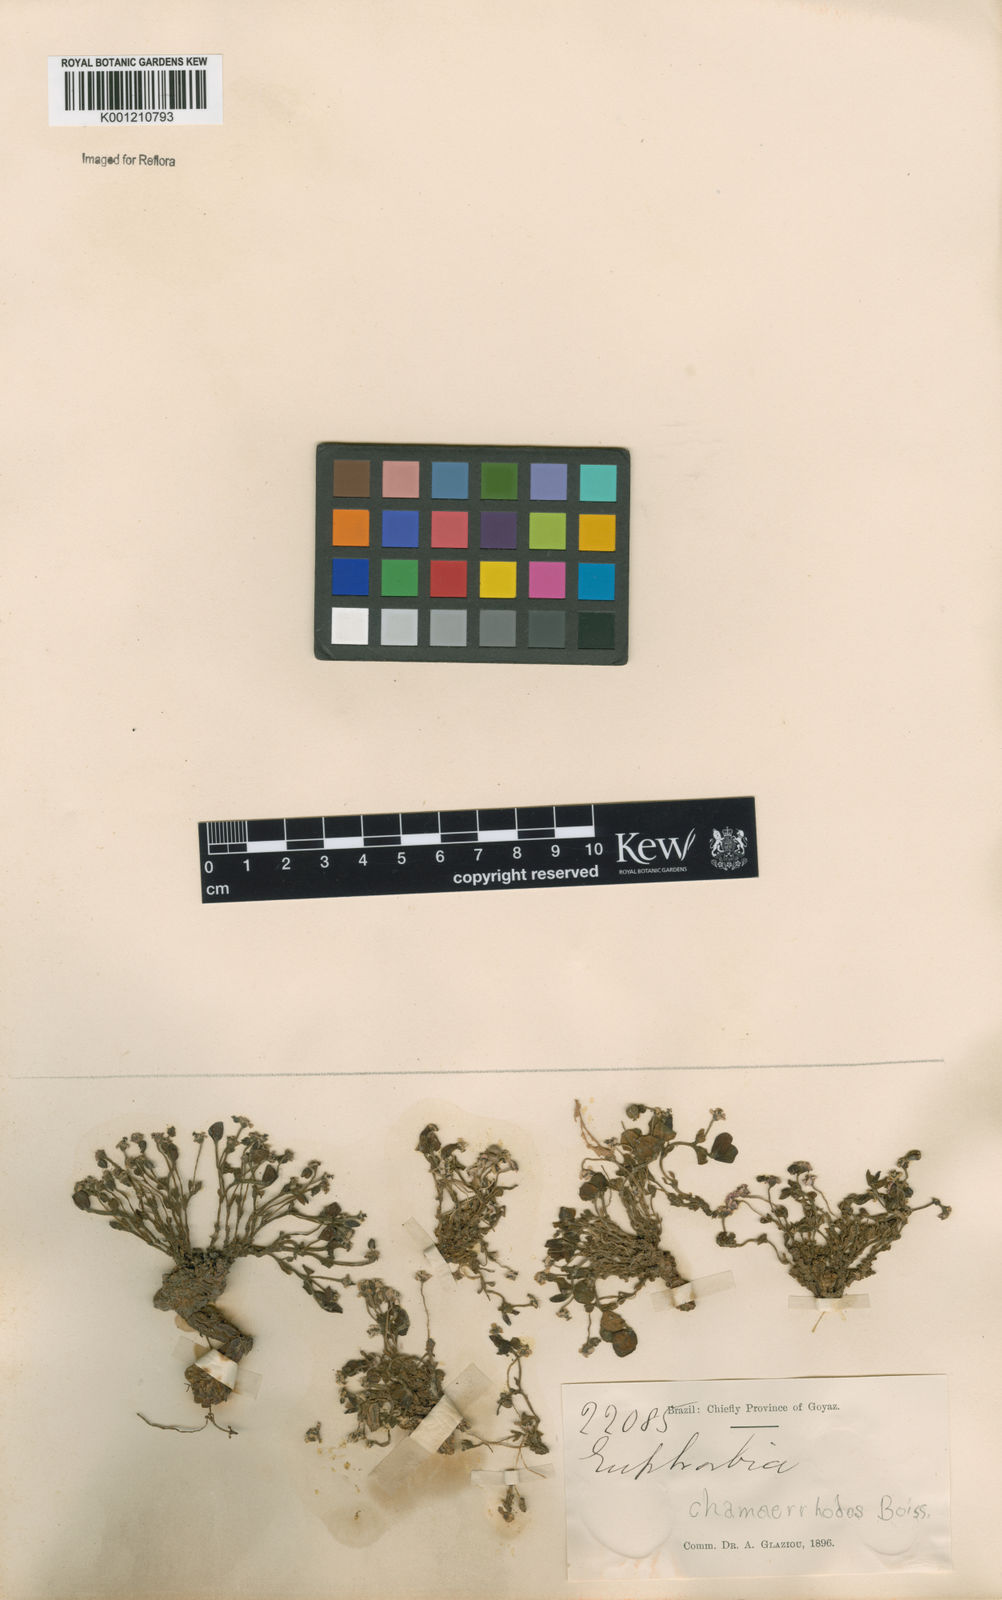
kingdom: Plantae
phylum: Tracheophyta
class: Magnoliopsida
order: Malpighiales
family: Euphorbiaceae
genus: Euphorbia
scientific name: Euphorbia chamaerrhodos
